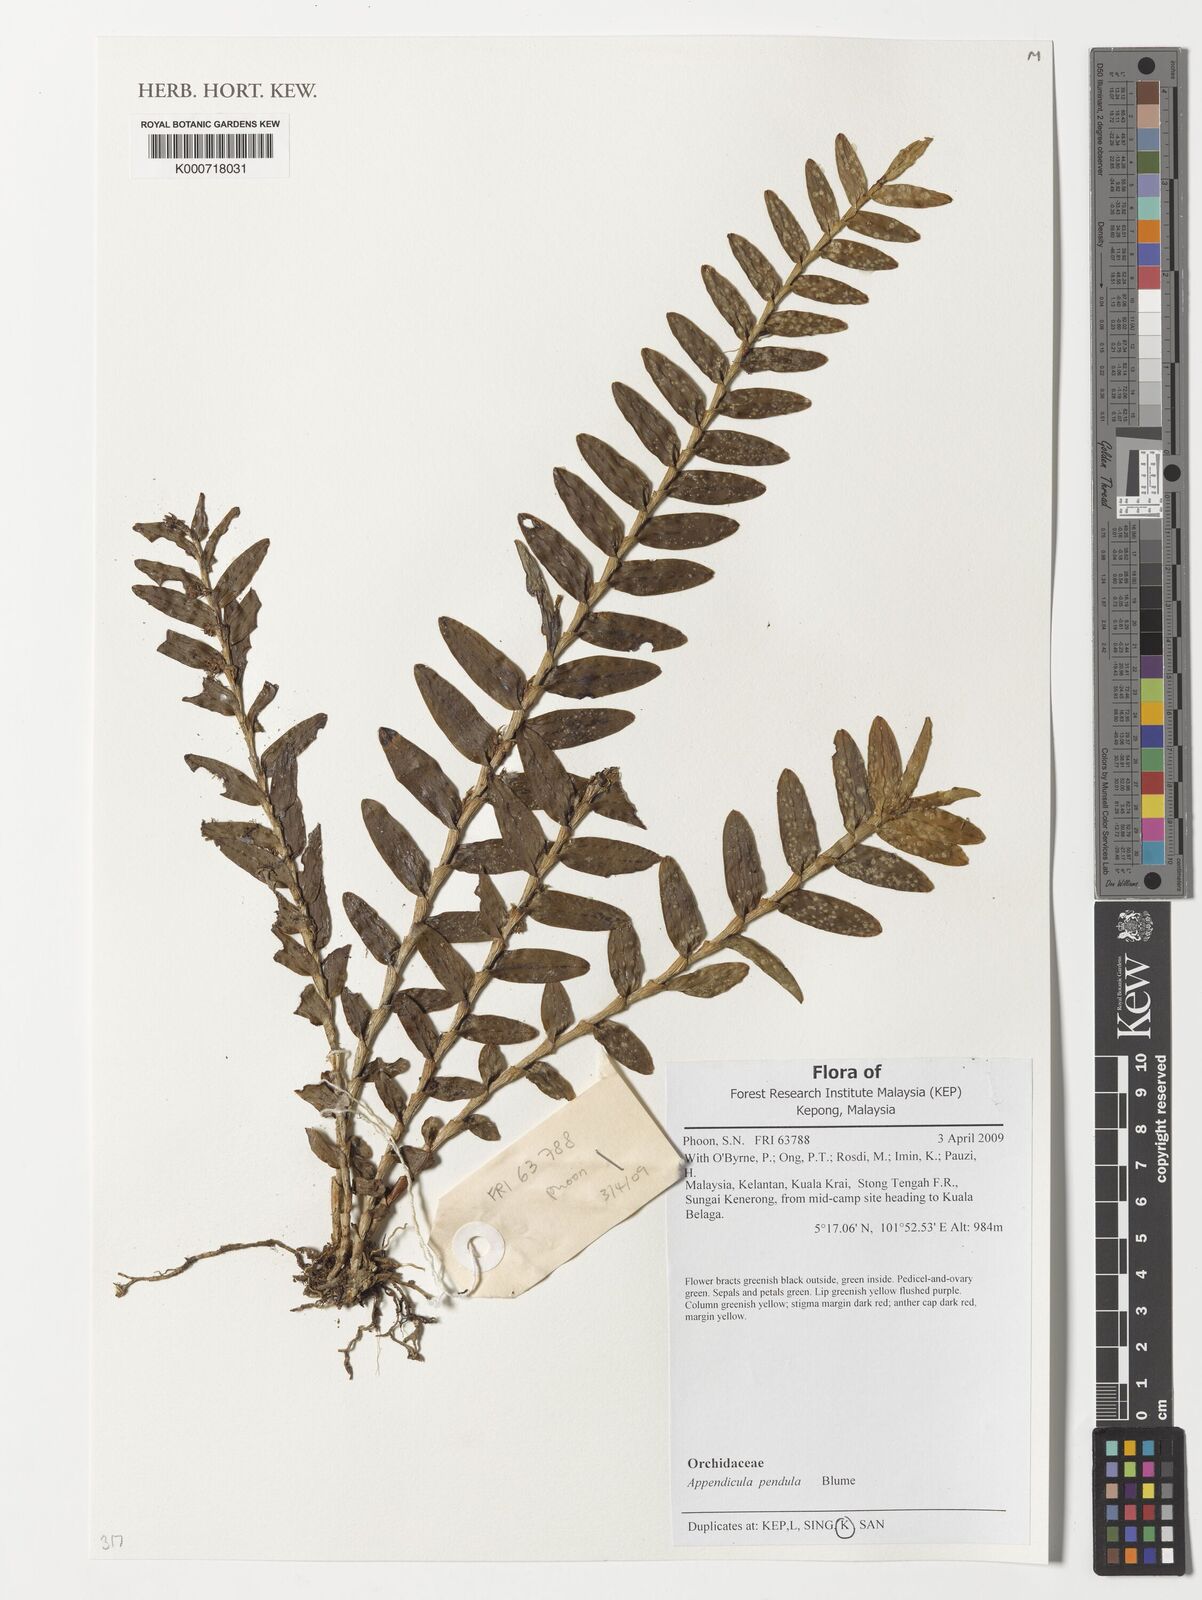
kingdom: Plantae
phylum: Tracheophyta
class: Liliopsida
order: Asparagales
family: Orchidaceae
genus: Appendicula
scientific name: Appendicula pendula
